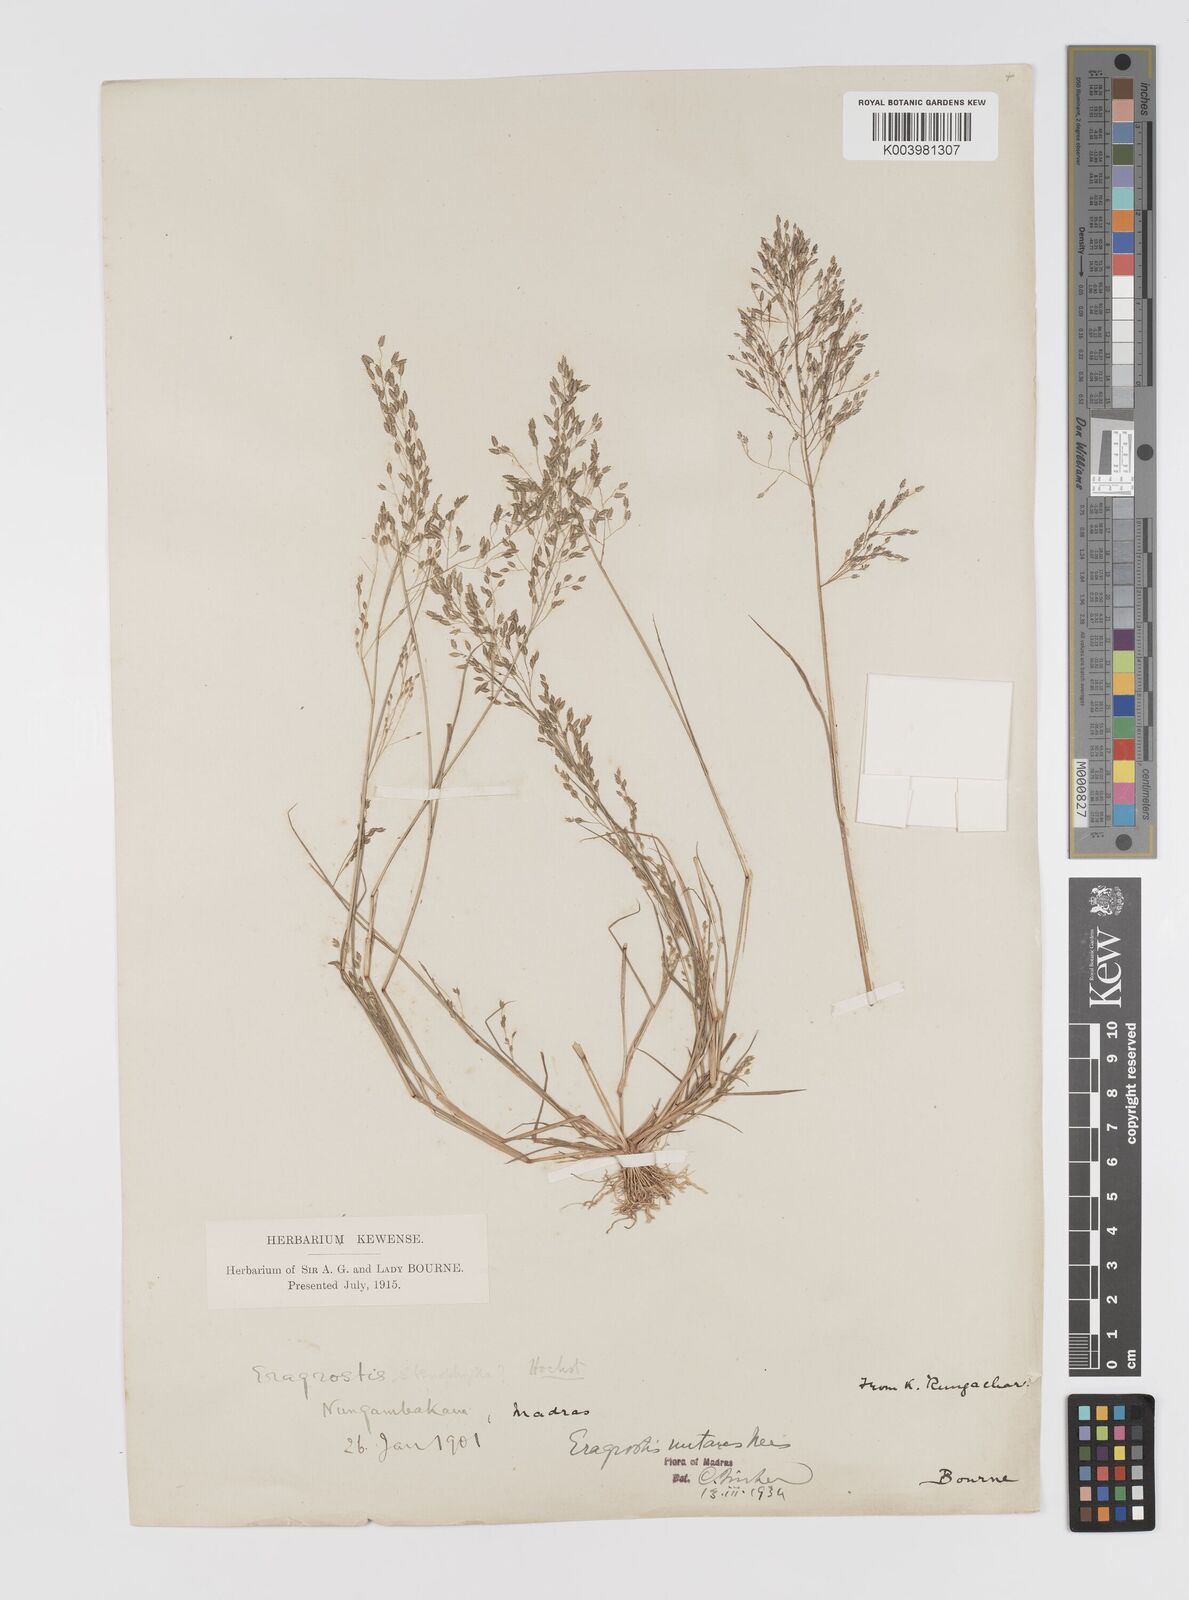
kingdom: Plantae
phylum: Tracheophyta
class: Liliopsida
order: Poales
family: Poaceae
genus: Eragrostis
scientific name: Eragrostis
